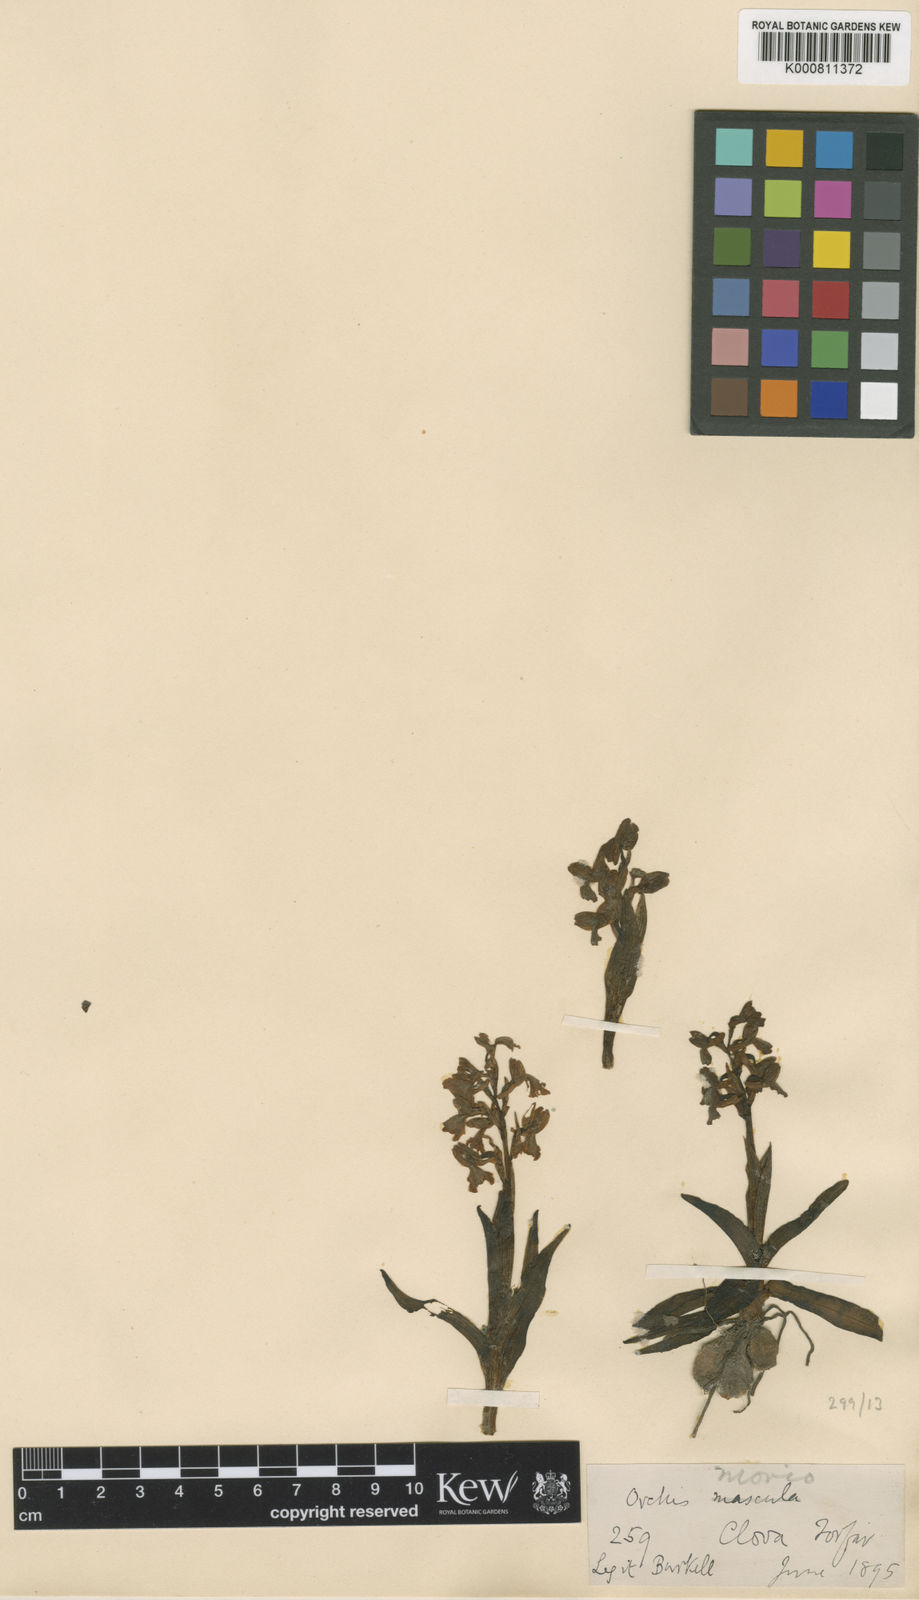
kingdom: Plantae
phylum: Tracheophyta
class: Liliopsida
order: Asparagales
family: Orchidaceae
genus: Anacamptis
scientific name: Anacamptis morio
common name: Green-winged orchid
